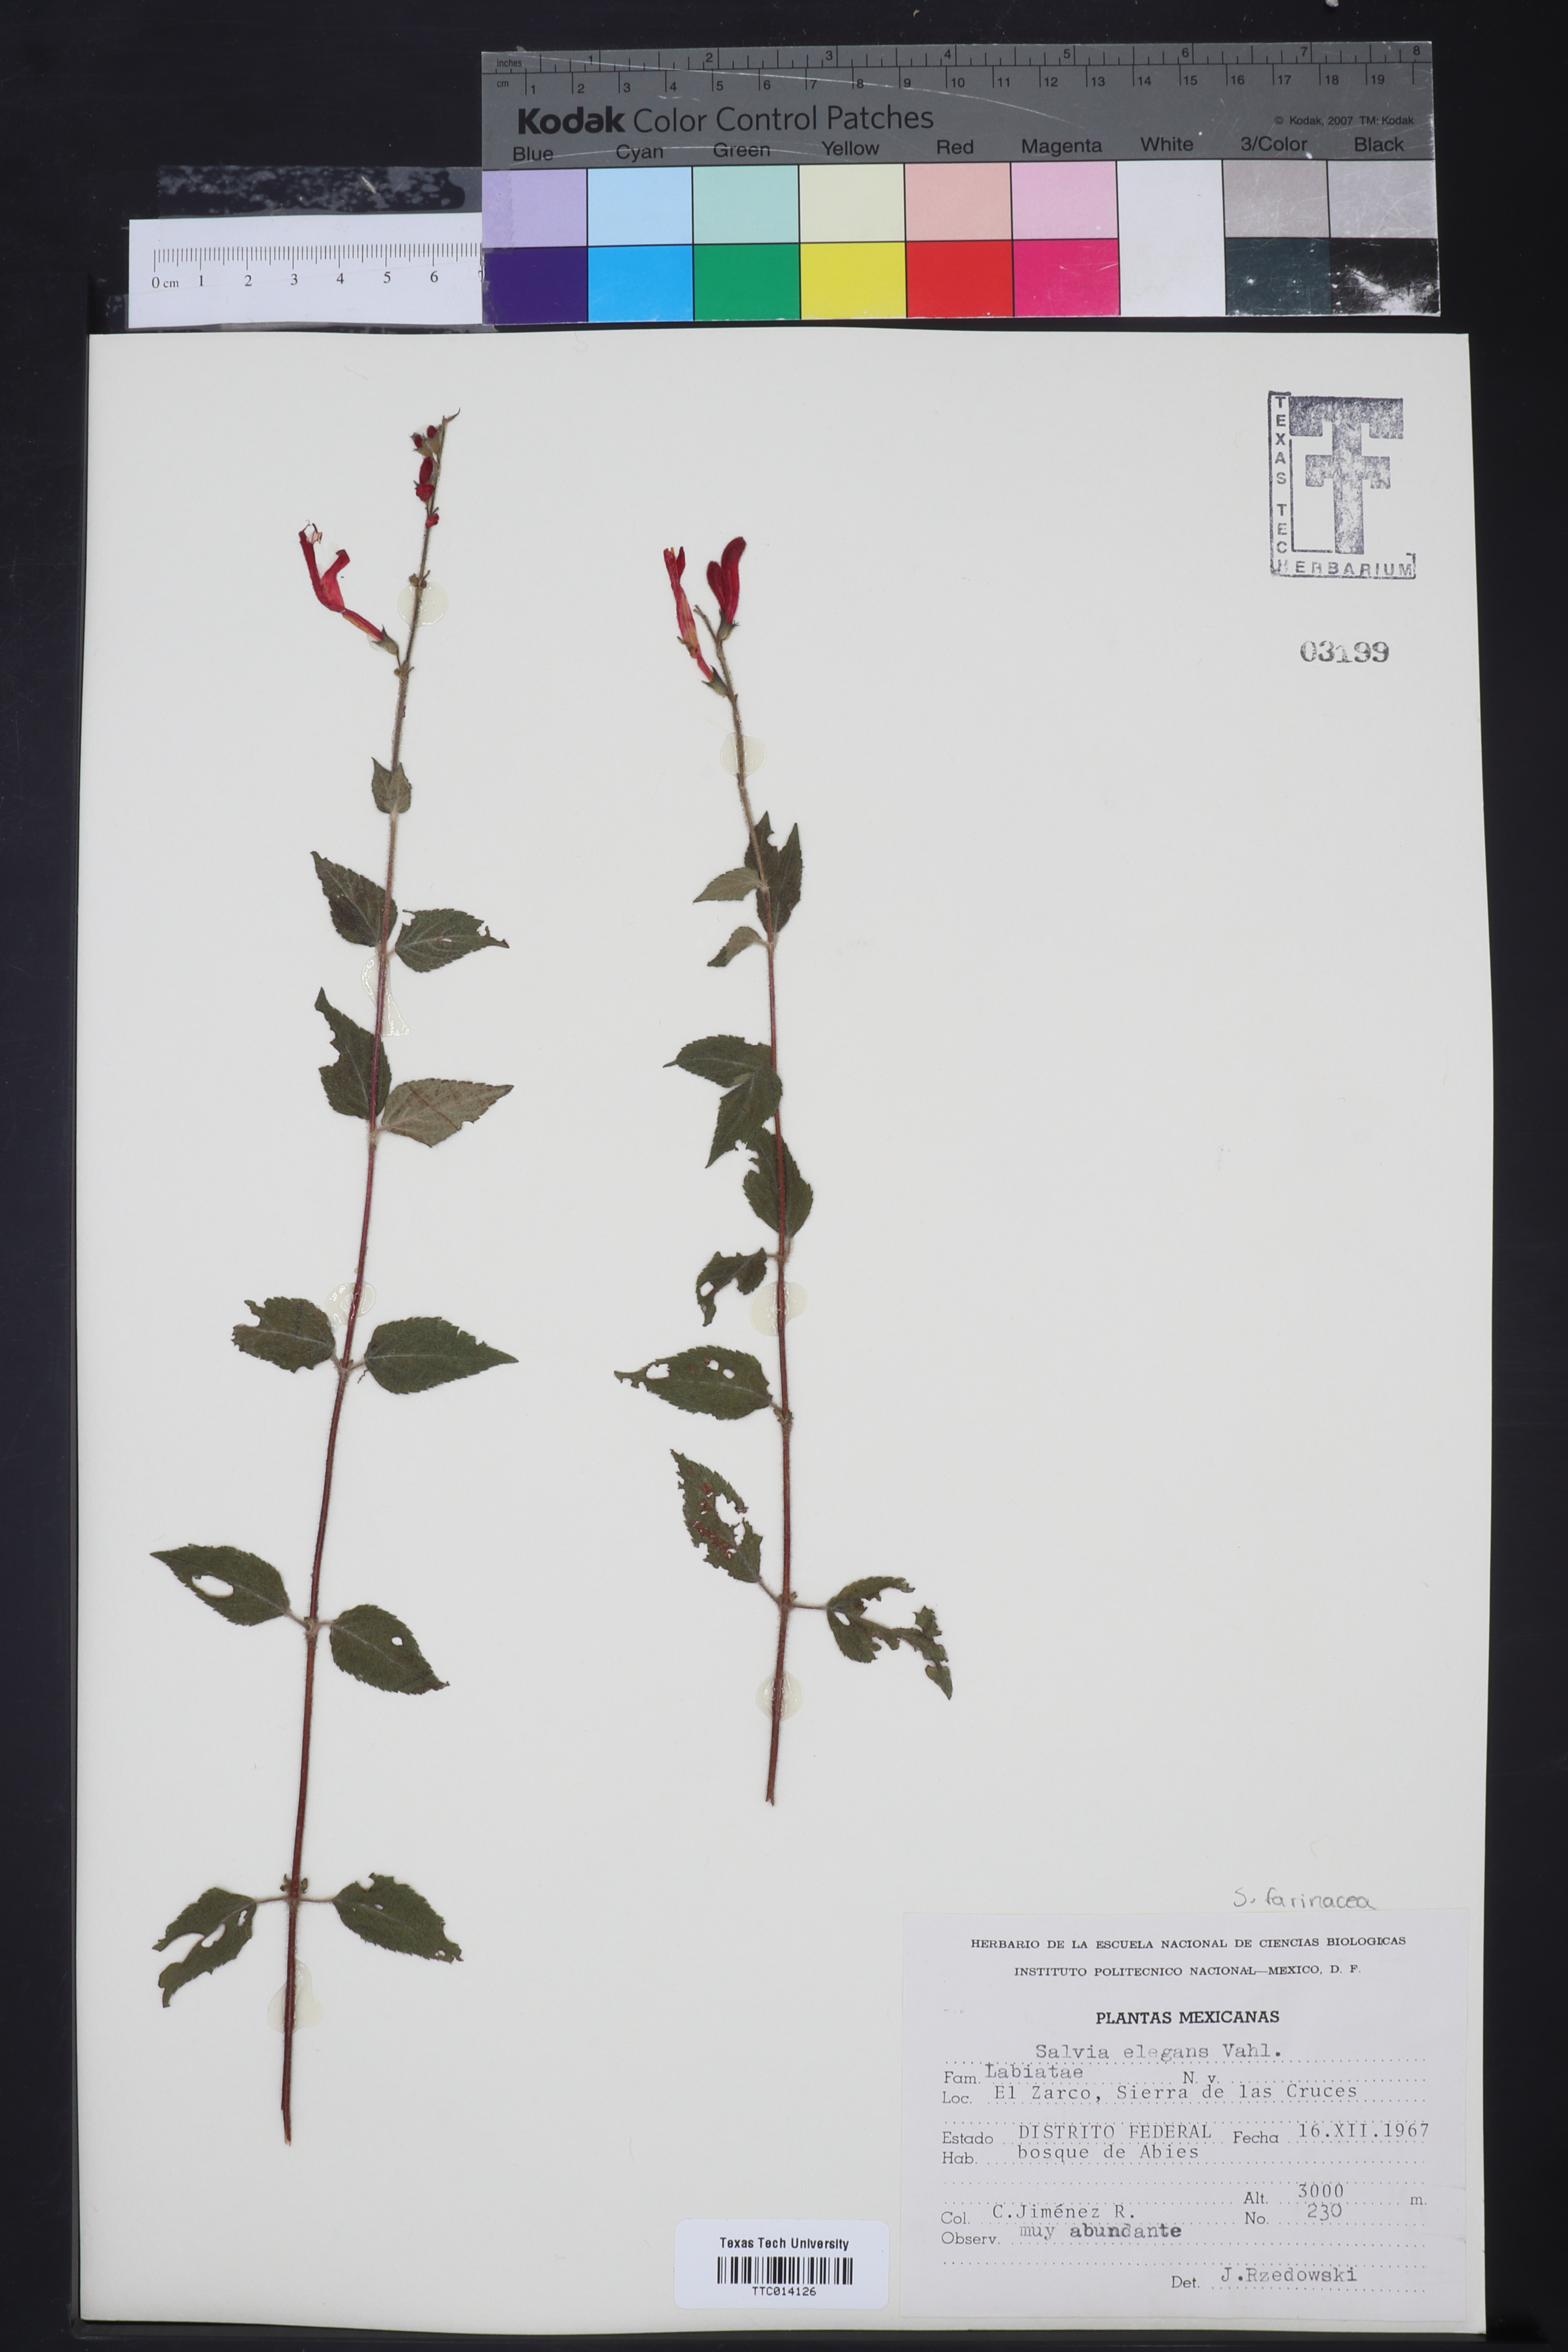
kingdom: Plantae
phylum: Tracheophyta
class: Magnoliopsida
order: Lamiales
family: Lamiaceae
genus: Salvia
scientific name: Salvia elegans
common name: Pineapple sage
